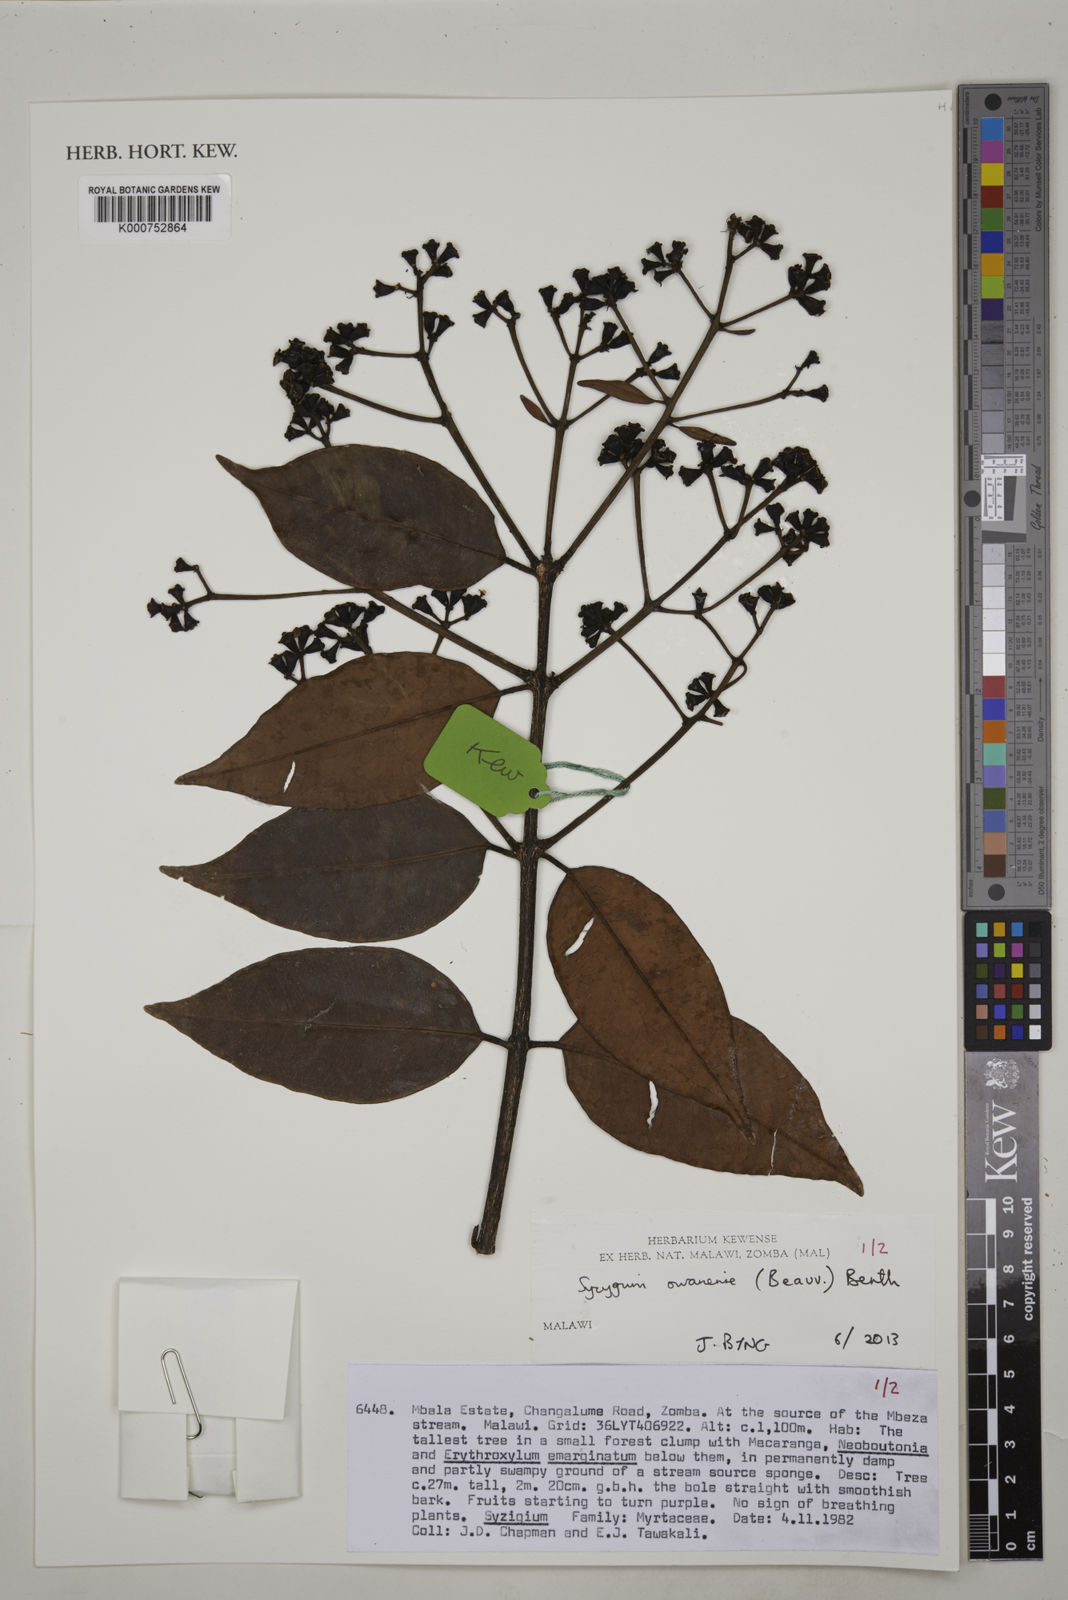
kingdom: Plantae
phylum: Tracheophyta
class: Magnoliopsida
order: Myrtales
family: Myrtaceae
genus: Syzygium
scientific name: Syzygium owariense
